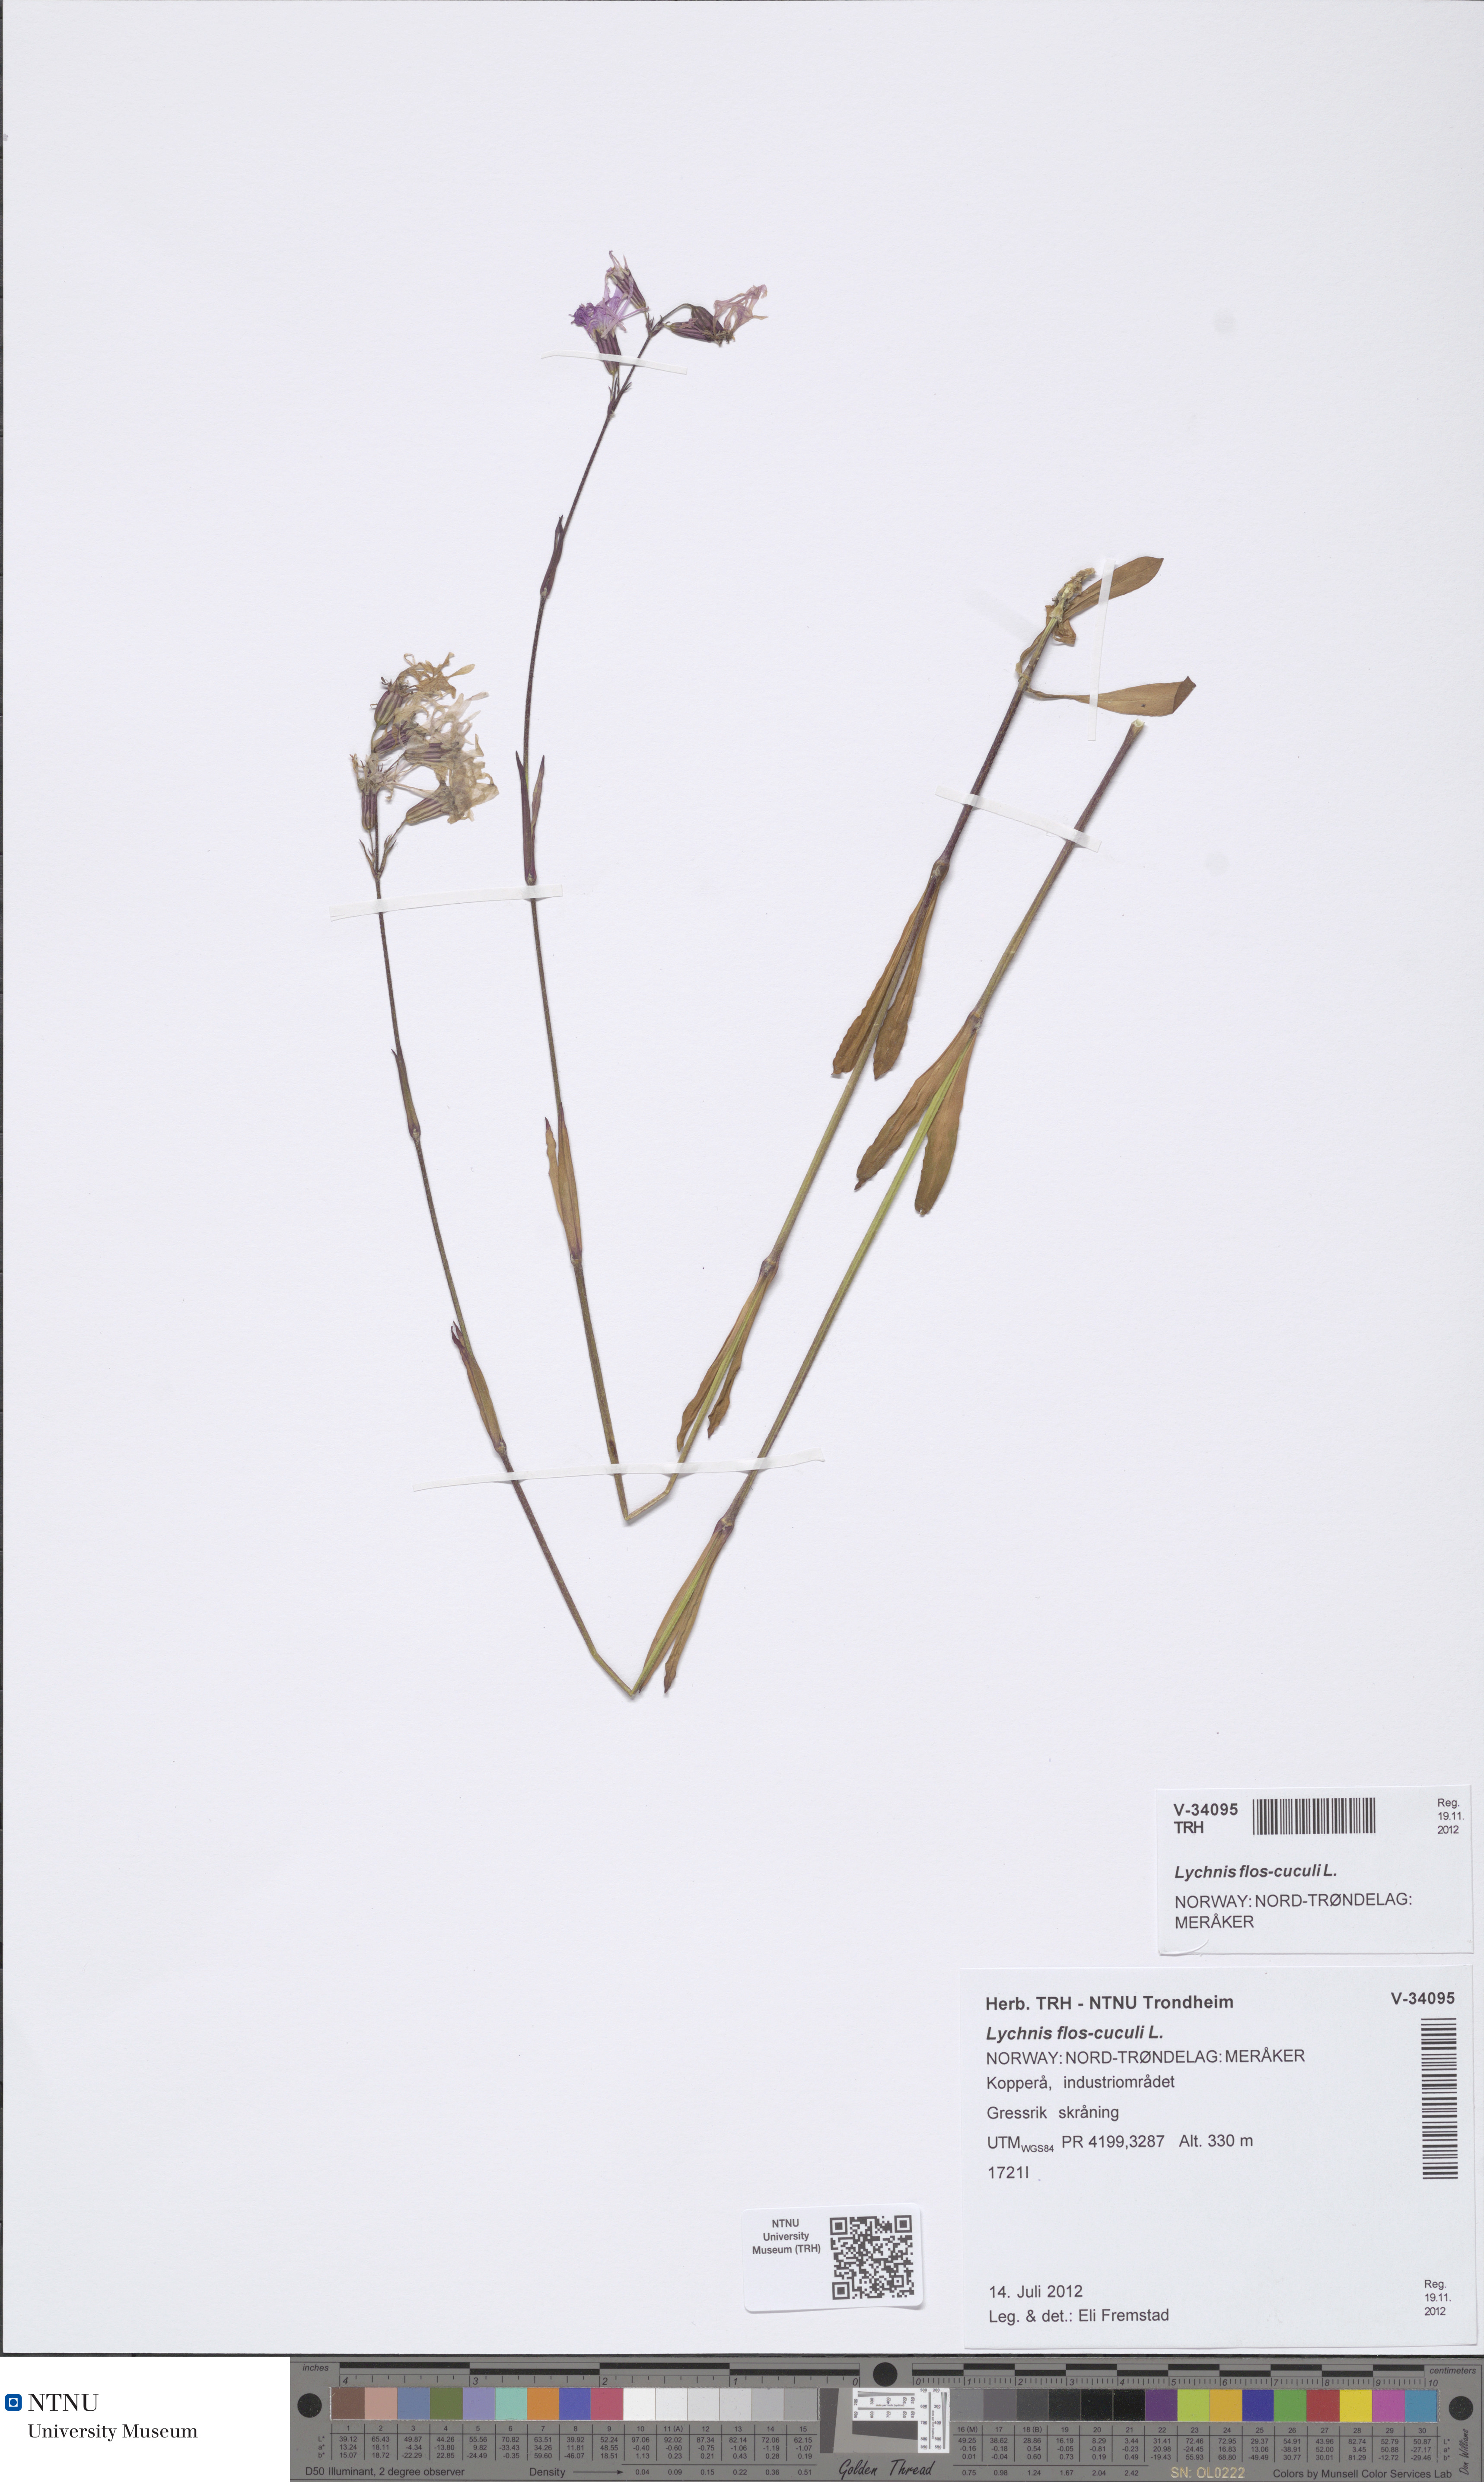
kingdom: Plantae
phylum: Tracheophyta
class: Magnoliopsida
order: Caryophyllales
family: Caryophyllaceae
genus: Silene
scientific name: Silene flos-cuculi
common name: Ragged-robin
